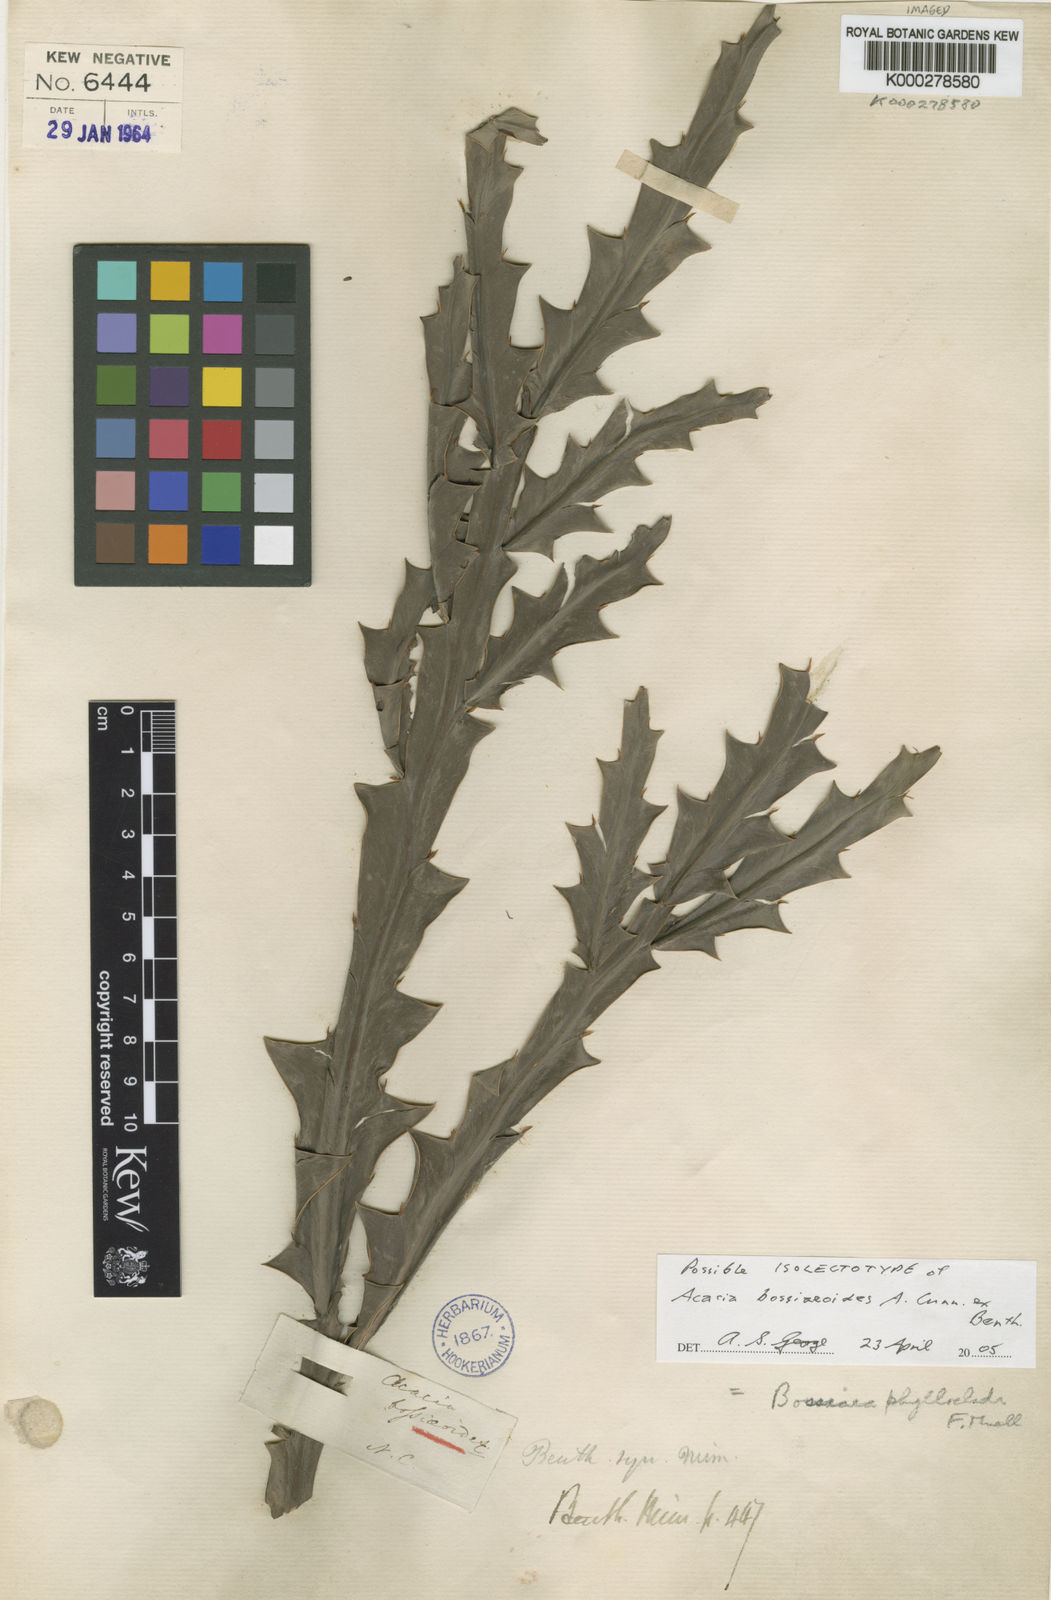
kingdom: Plantae
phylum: Tracheophyta
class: Magnoliopsida
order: Fabales
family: Fabaceae
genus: Bossiaea
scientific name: Bossiaea phylloclada
